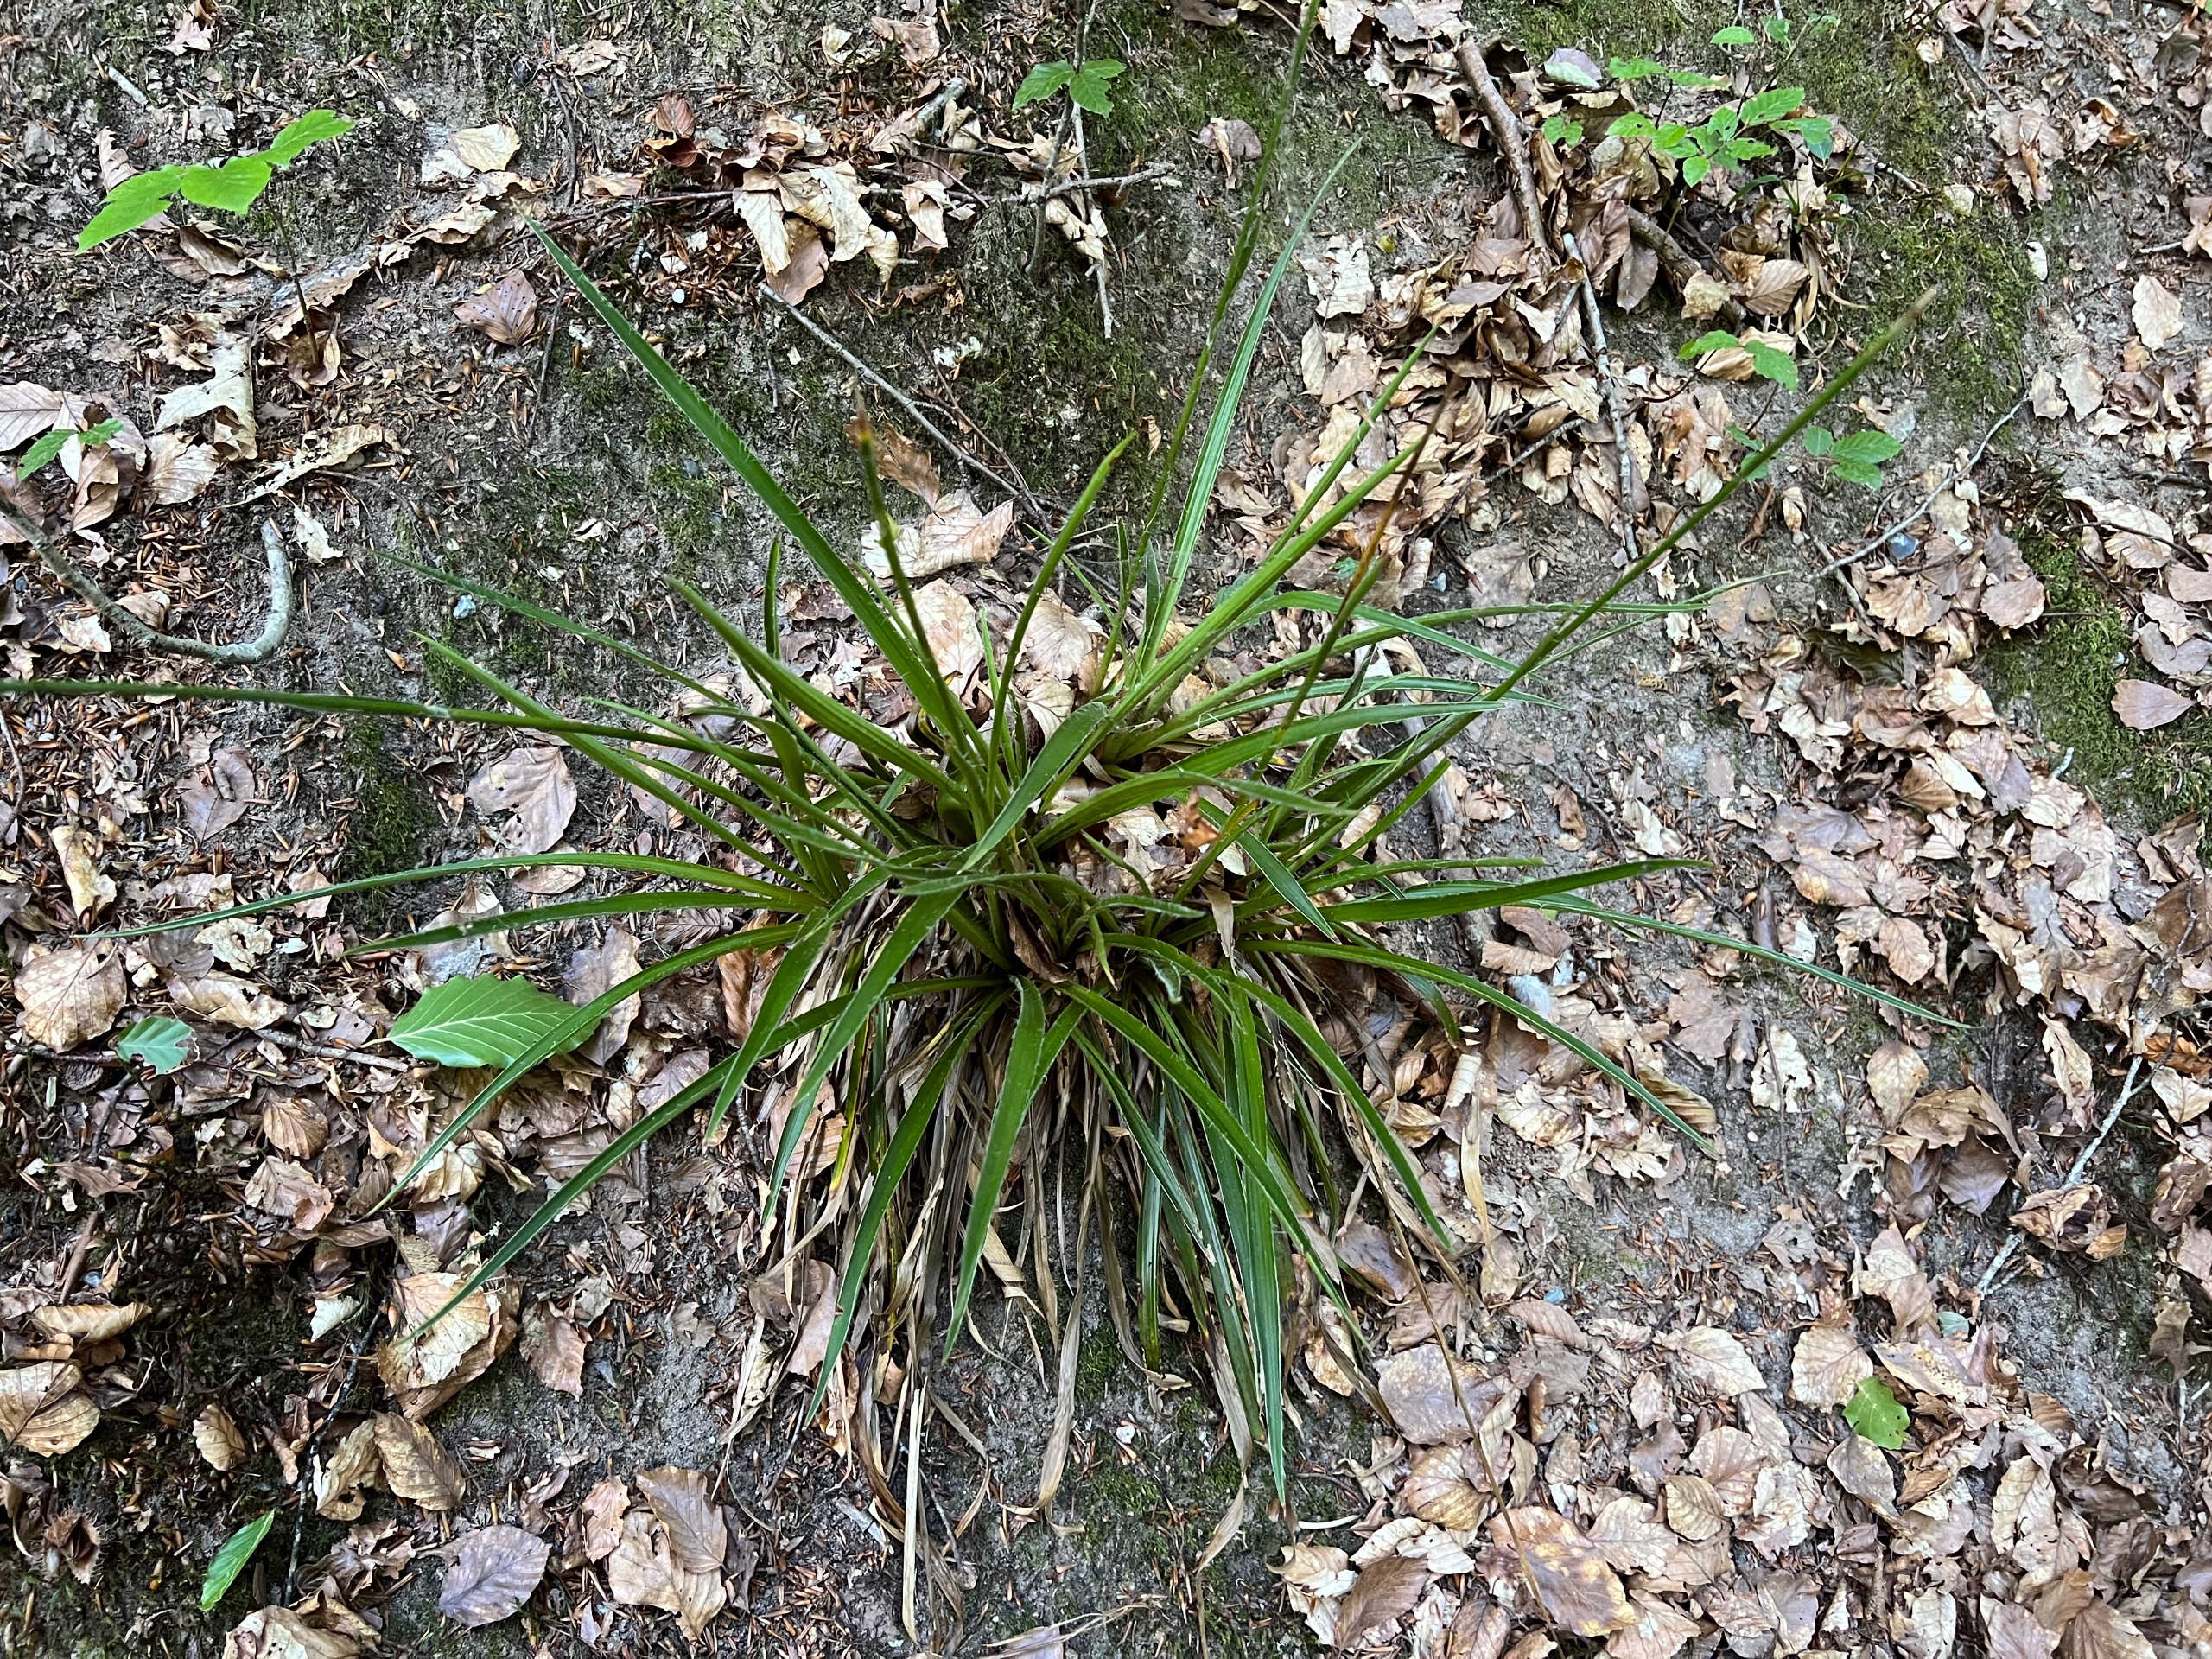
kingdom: Plantae
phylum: Tracheophyta
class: Liliopsida
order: Poales
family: Juncaceae
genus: Luzula
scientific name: Luzula sylvatica
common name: Stor frytle
